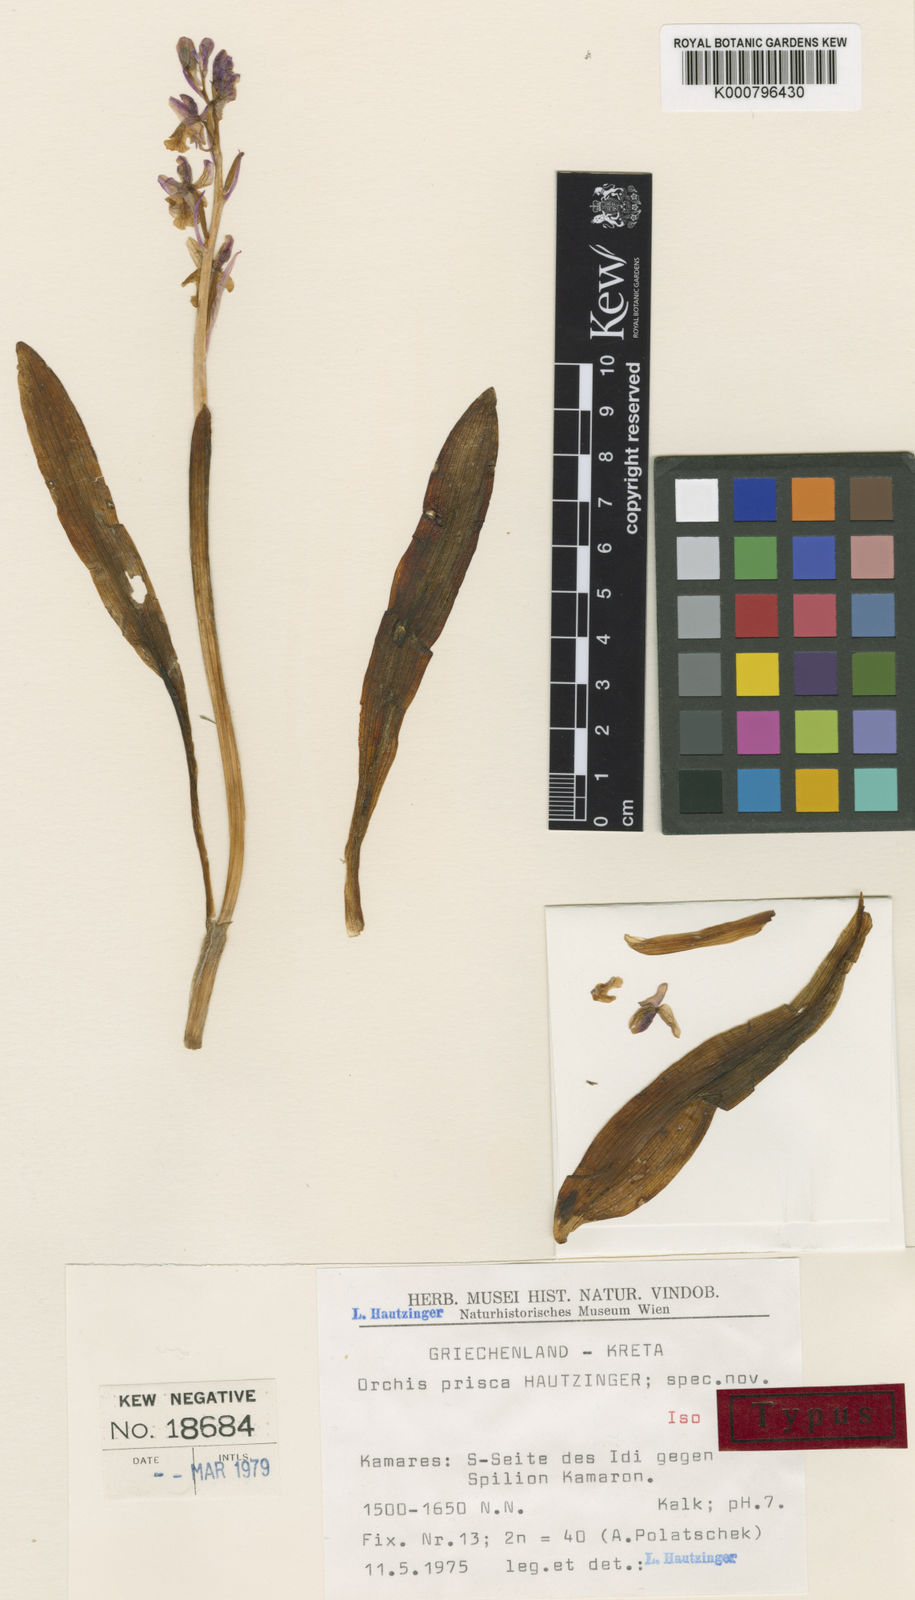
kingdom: Plantae
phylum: Tracheophyta
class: Liliopsida
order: Asparagales
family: Orchidaceae
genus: Orchis
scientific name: Orchis spitzelii
